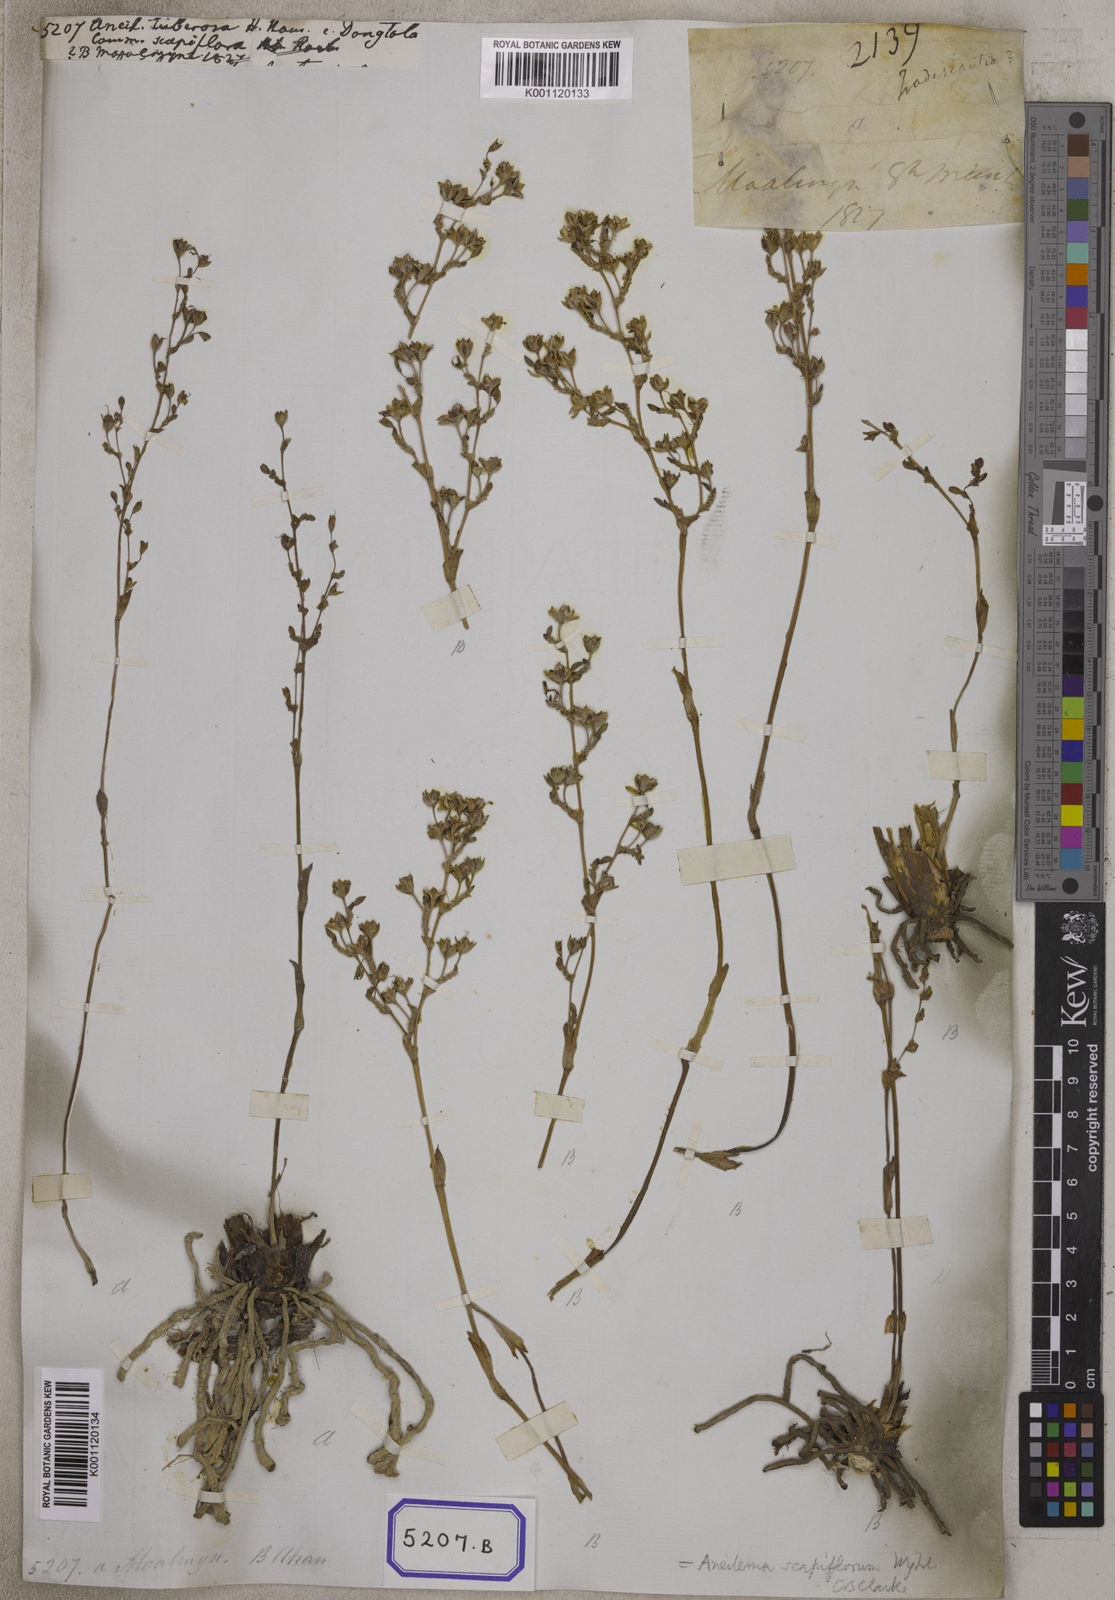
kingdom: Plantae
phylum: Tracheophyta
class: Liliopsida
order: Commelinales
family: Commelinaceae
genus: Aneilema
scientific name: Aneilema
